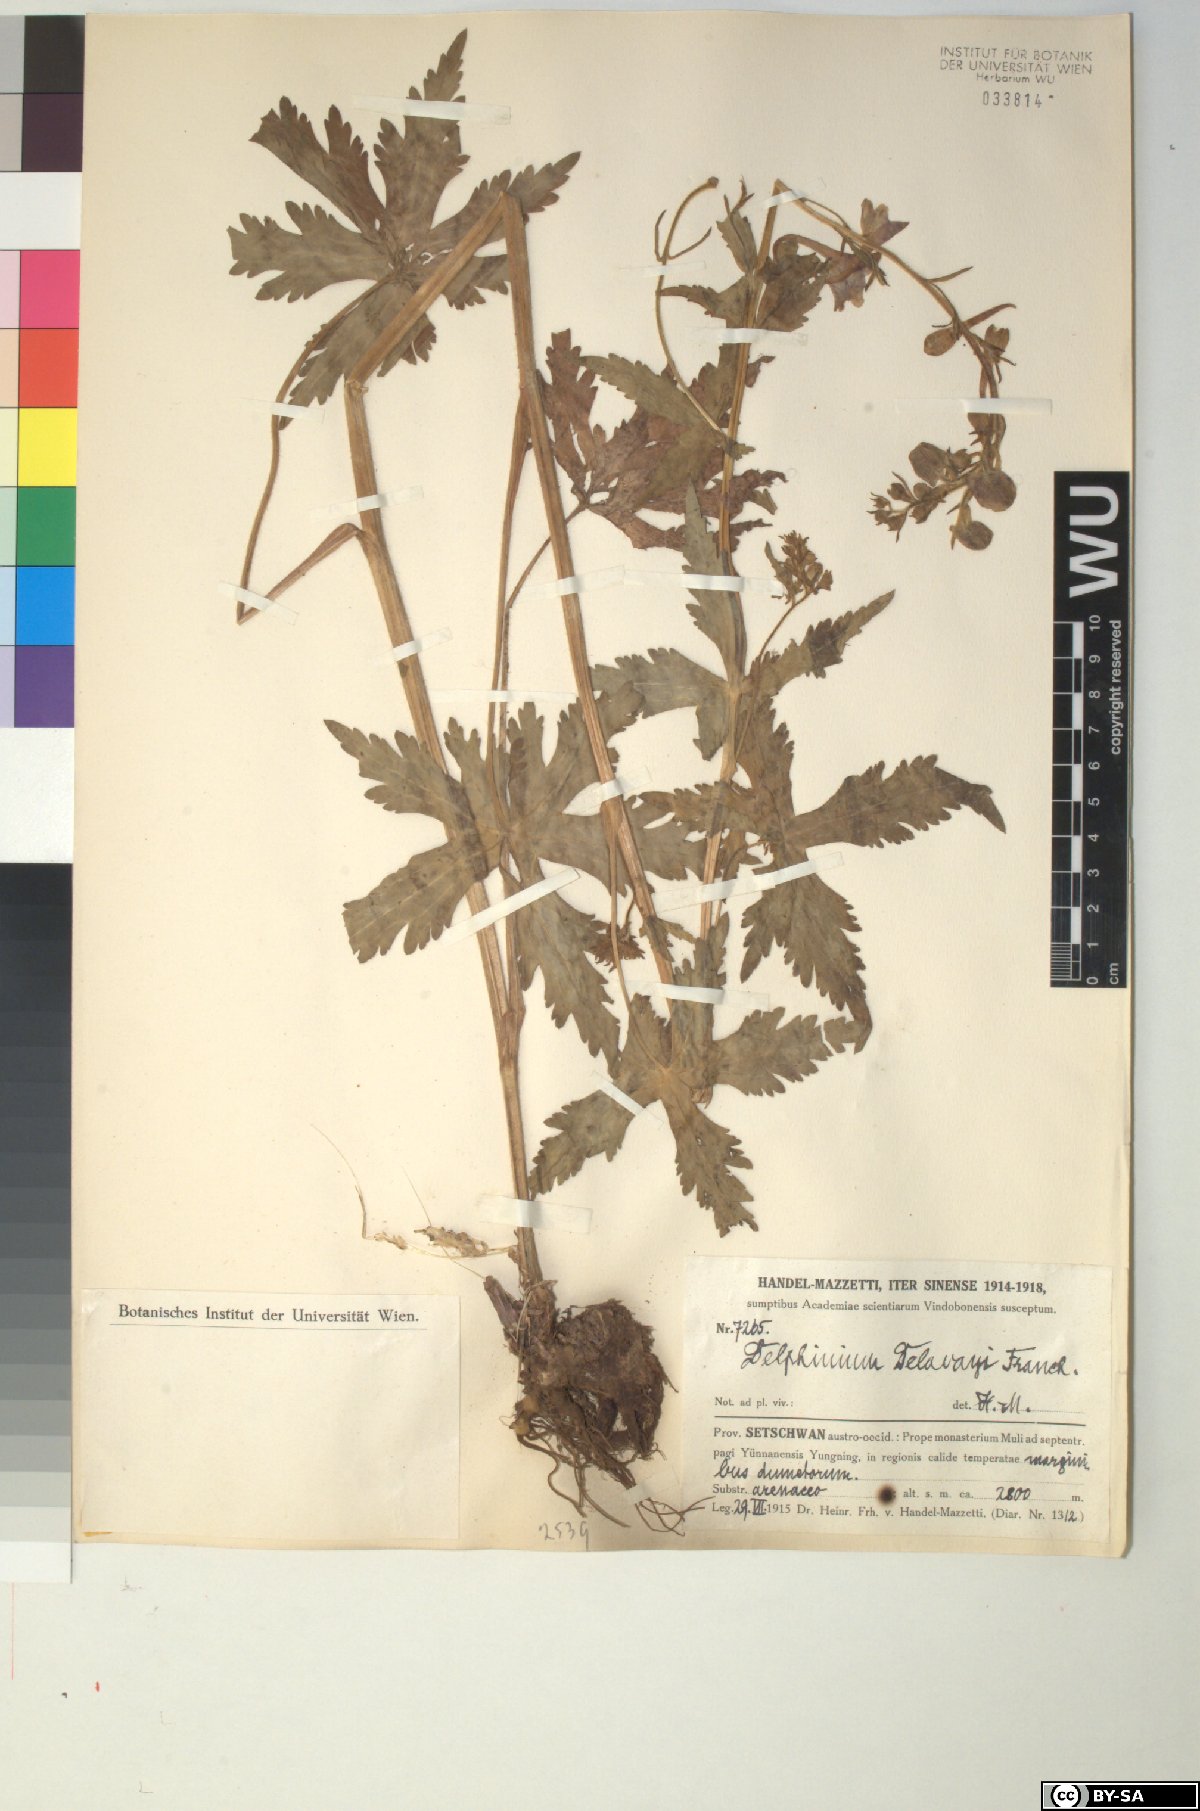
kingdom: Plantae
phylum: Tracheophyta
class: Magnoliopsida
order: Ranunculales
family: Ranunculaceae
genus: Delphinium
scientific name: Delphinium delavayi
